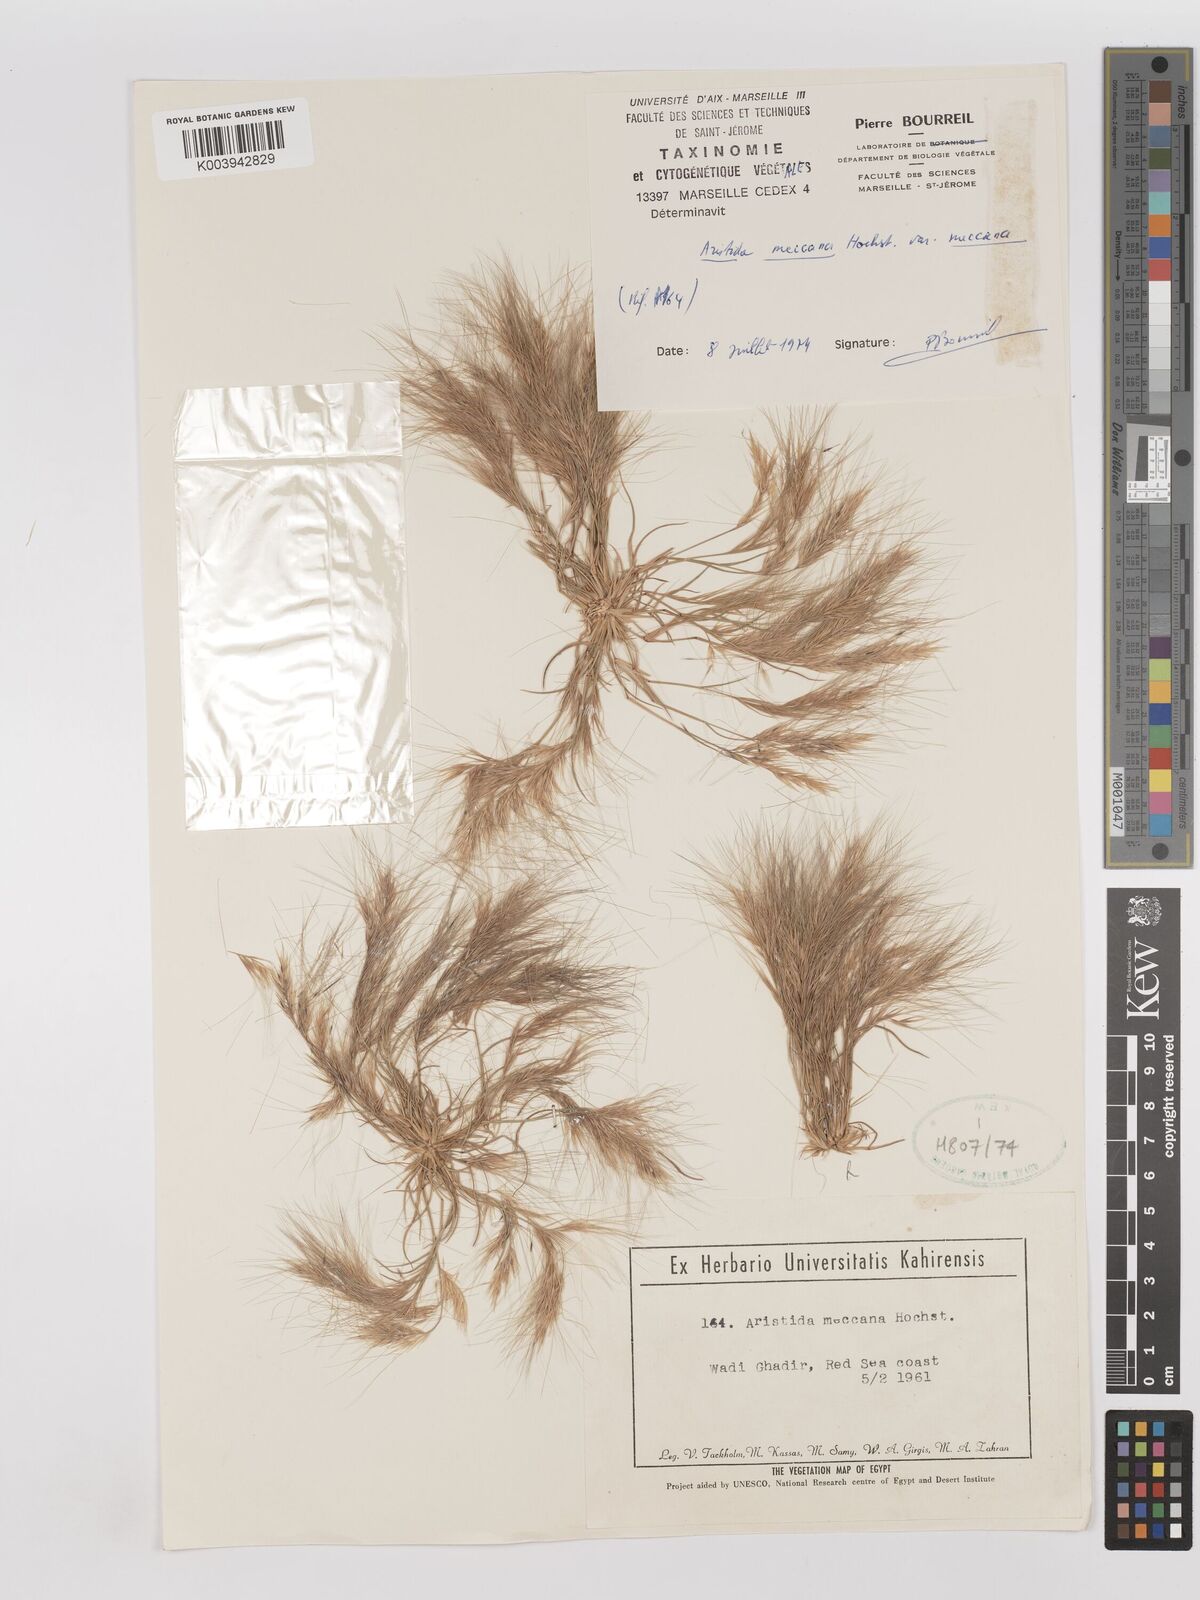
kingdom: Plantae
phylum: Tracheophyta
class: Liliopsida
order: Poales
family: Poaceae
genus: Aristida
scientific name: Aristida mutabilis
